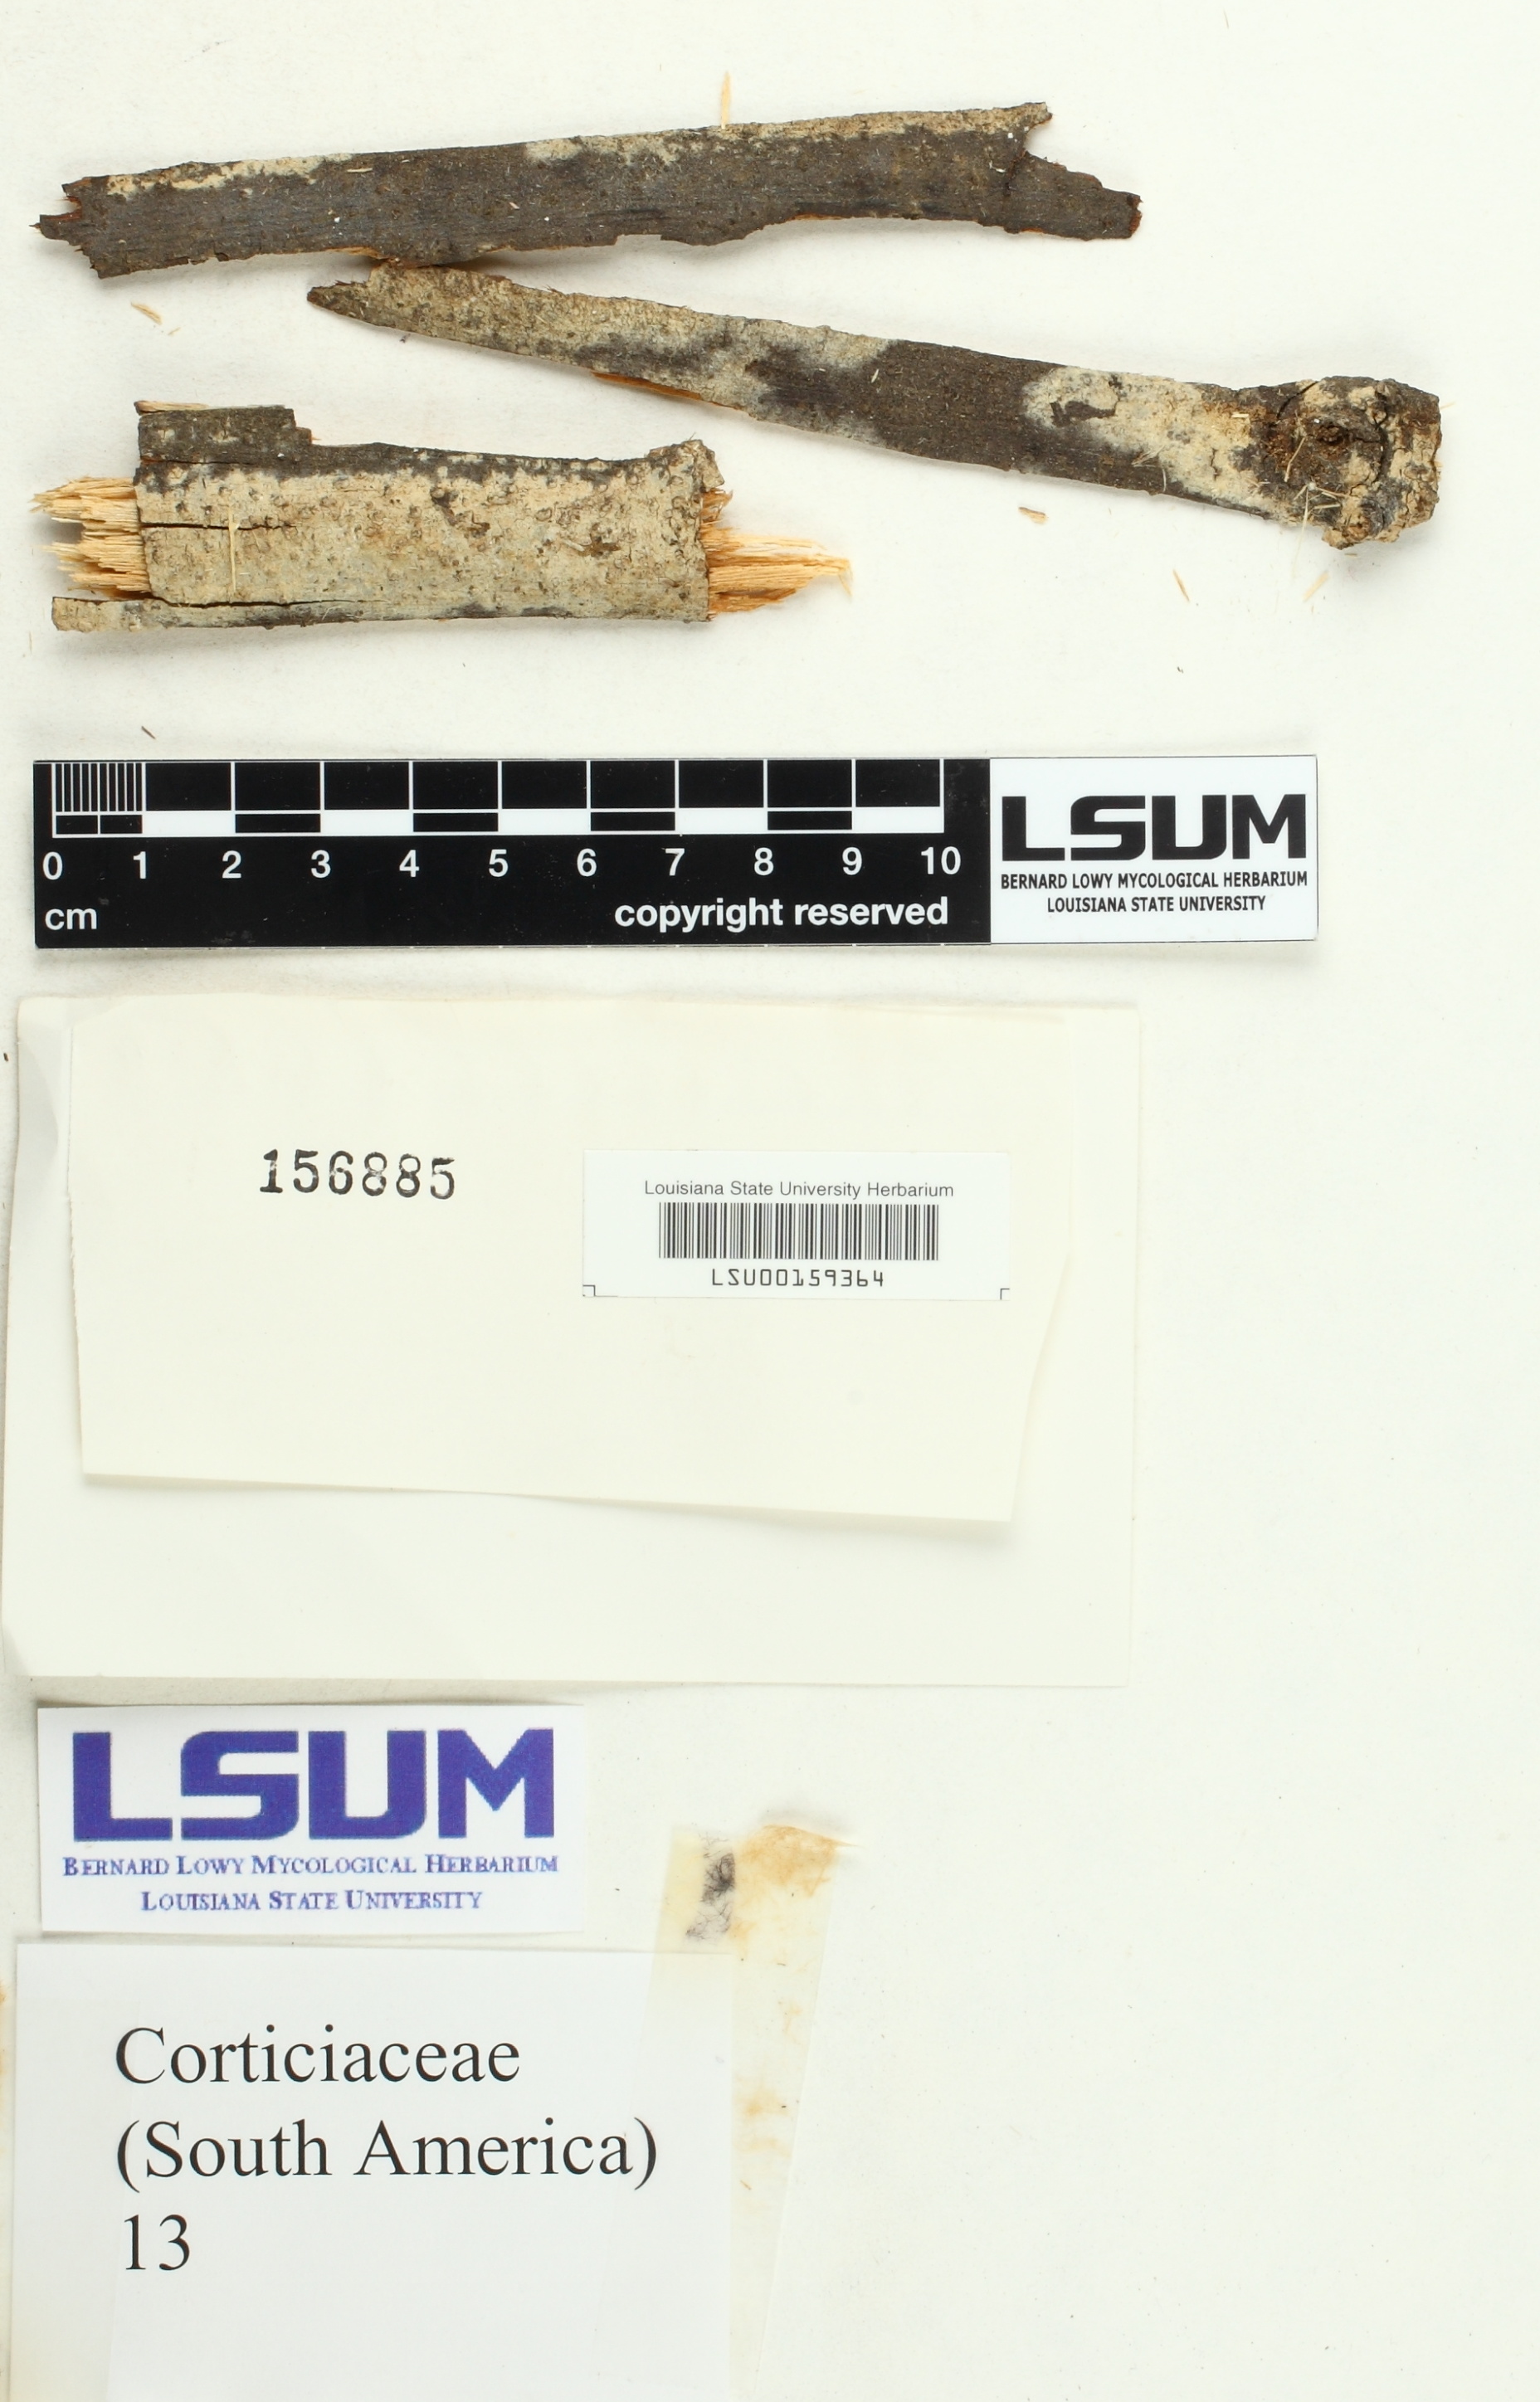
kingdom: Fungi
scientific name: Fungi
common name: Fungi
